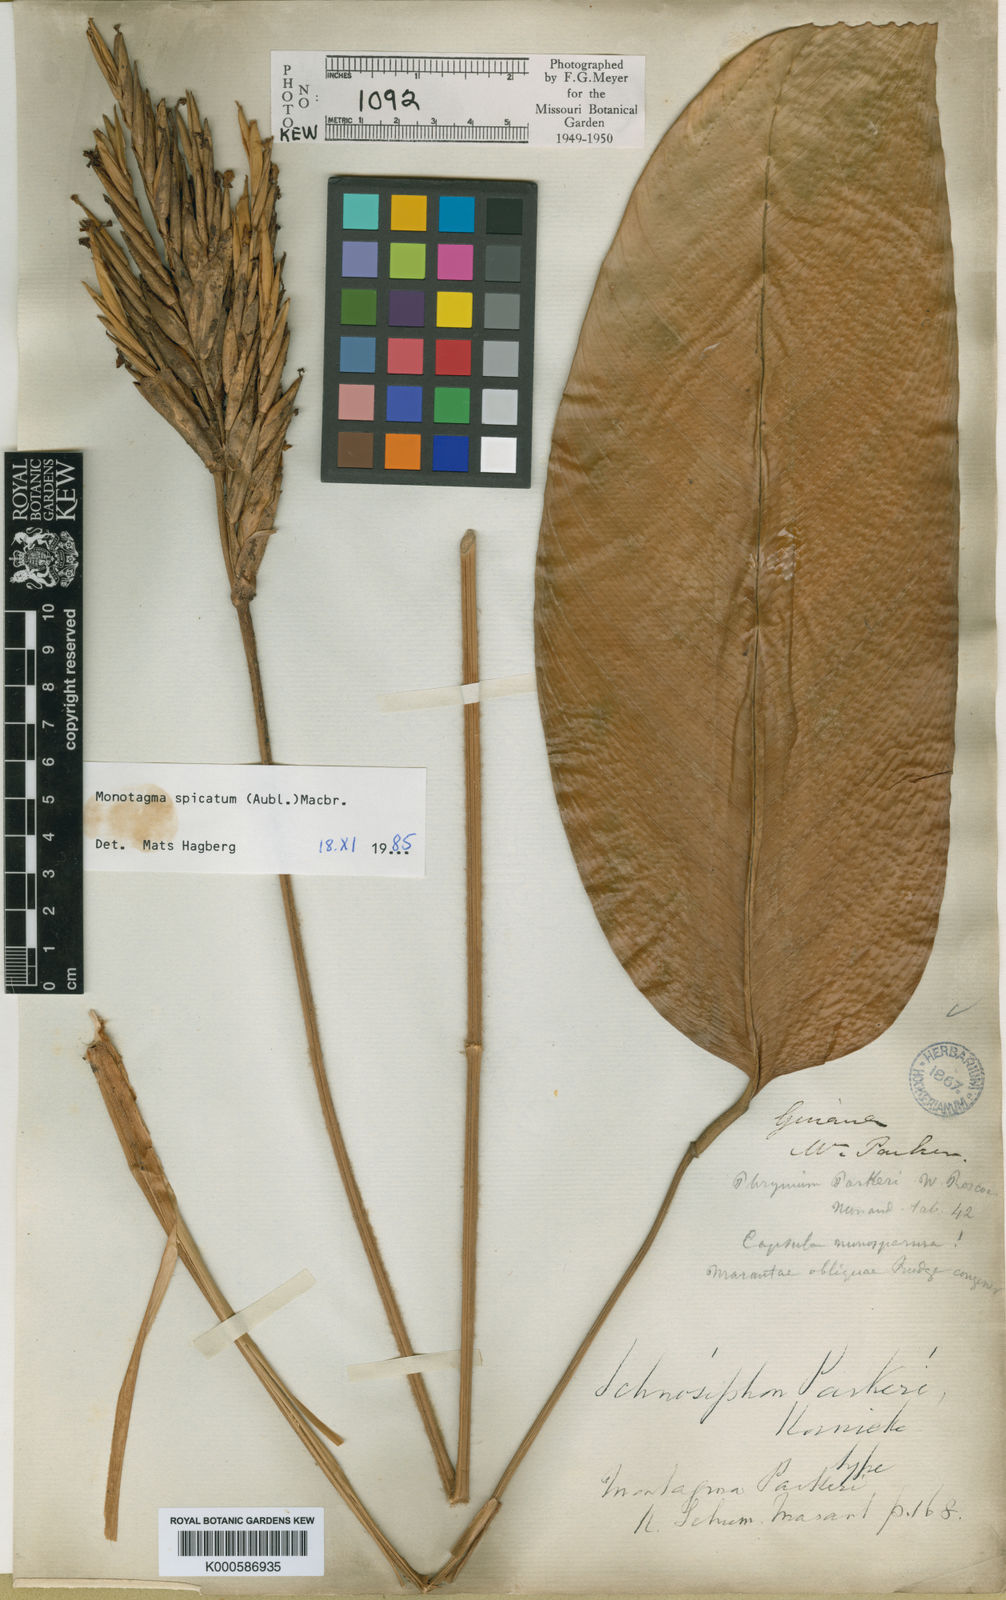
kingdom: Plantae
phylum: Tracheophyta
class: Liliopsida
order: Zingiberales
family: Marantaceae
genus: Monotagma
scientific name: Monotagma spicatum
